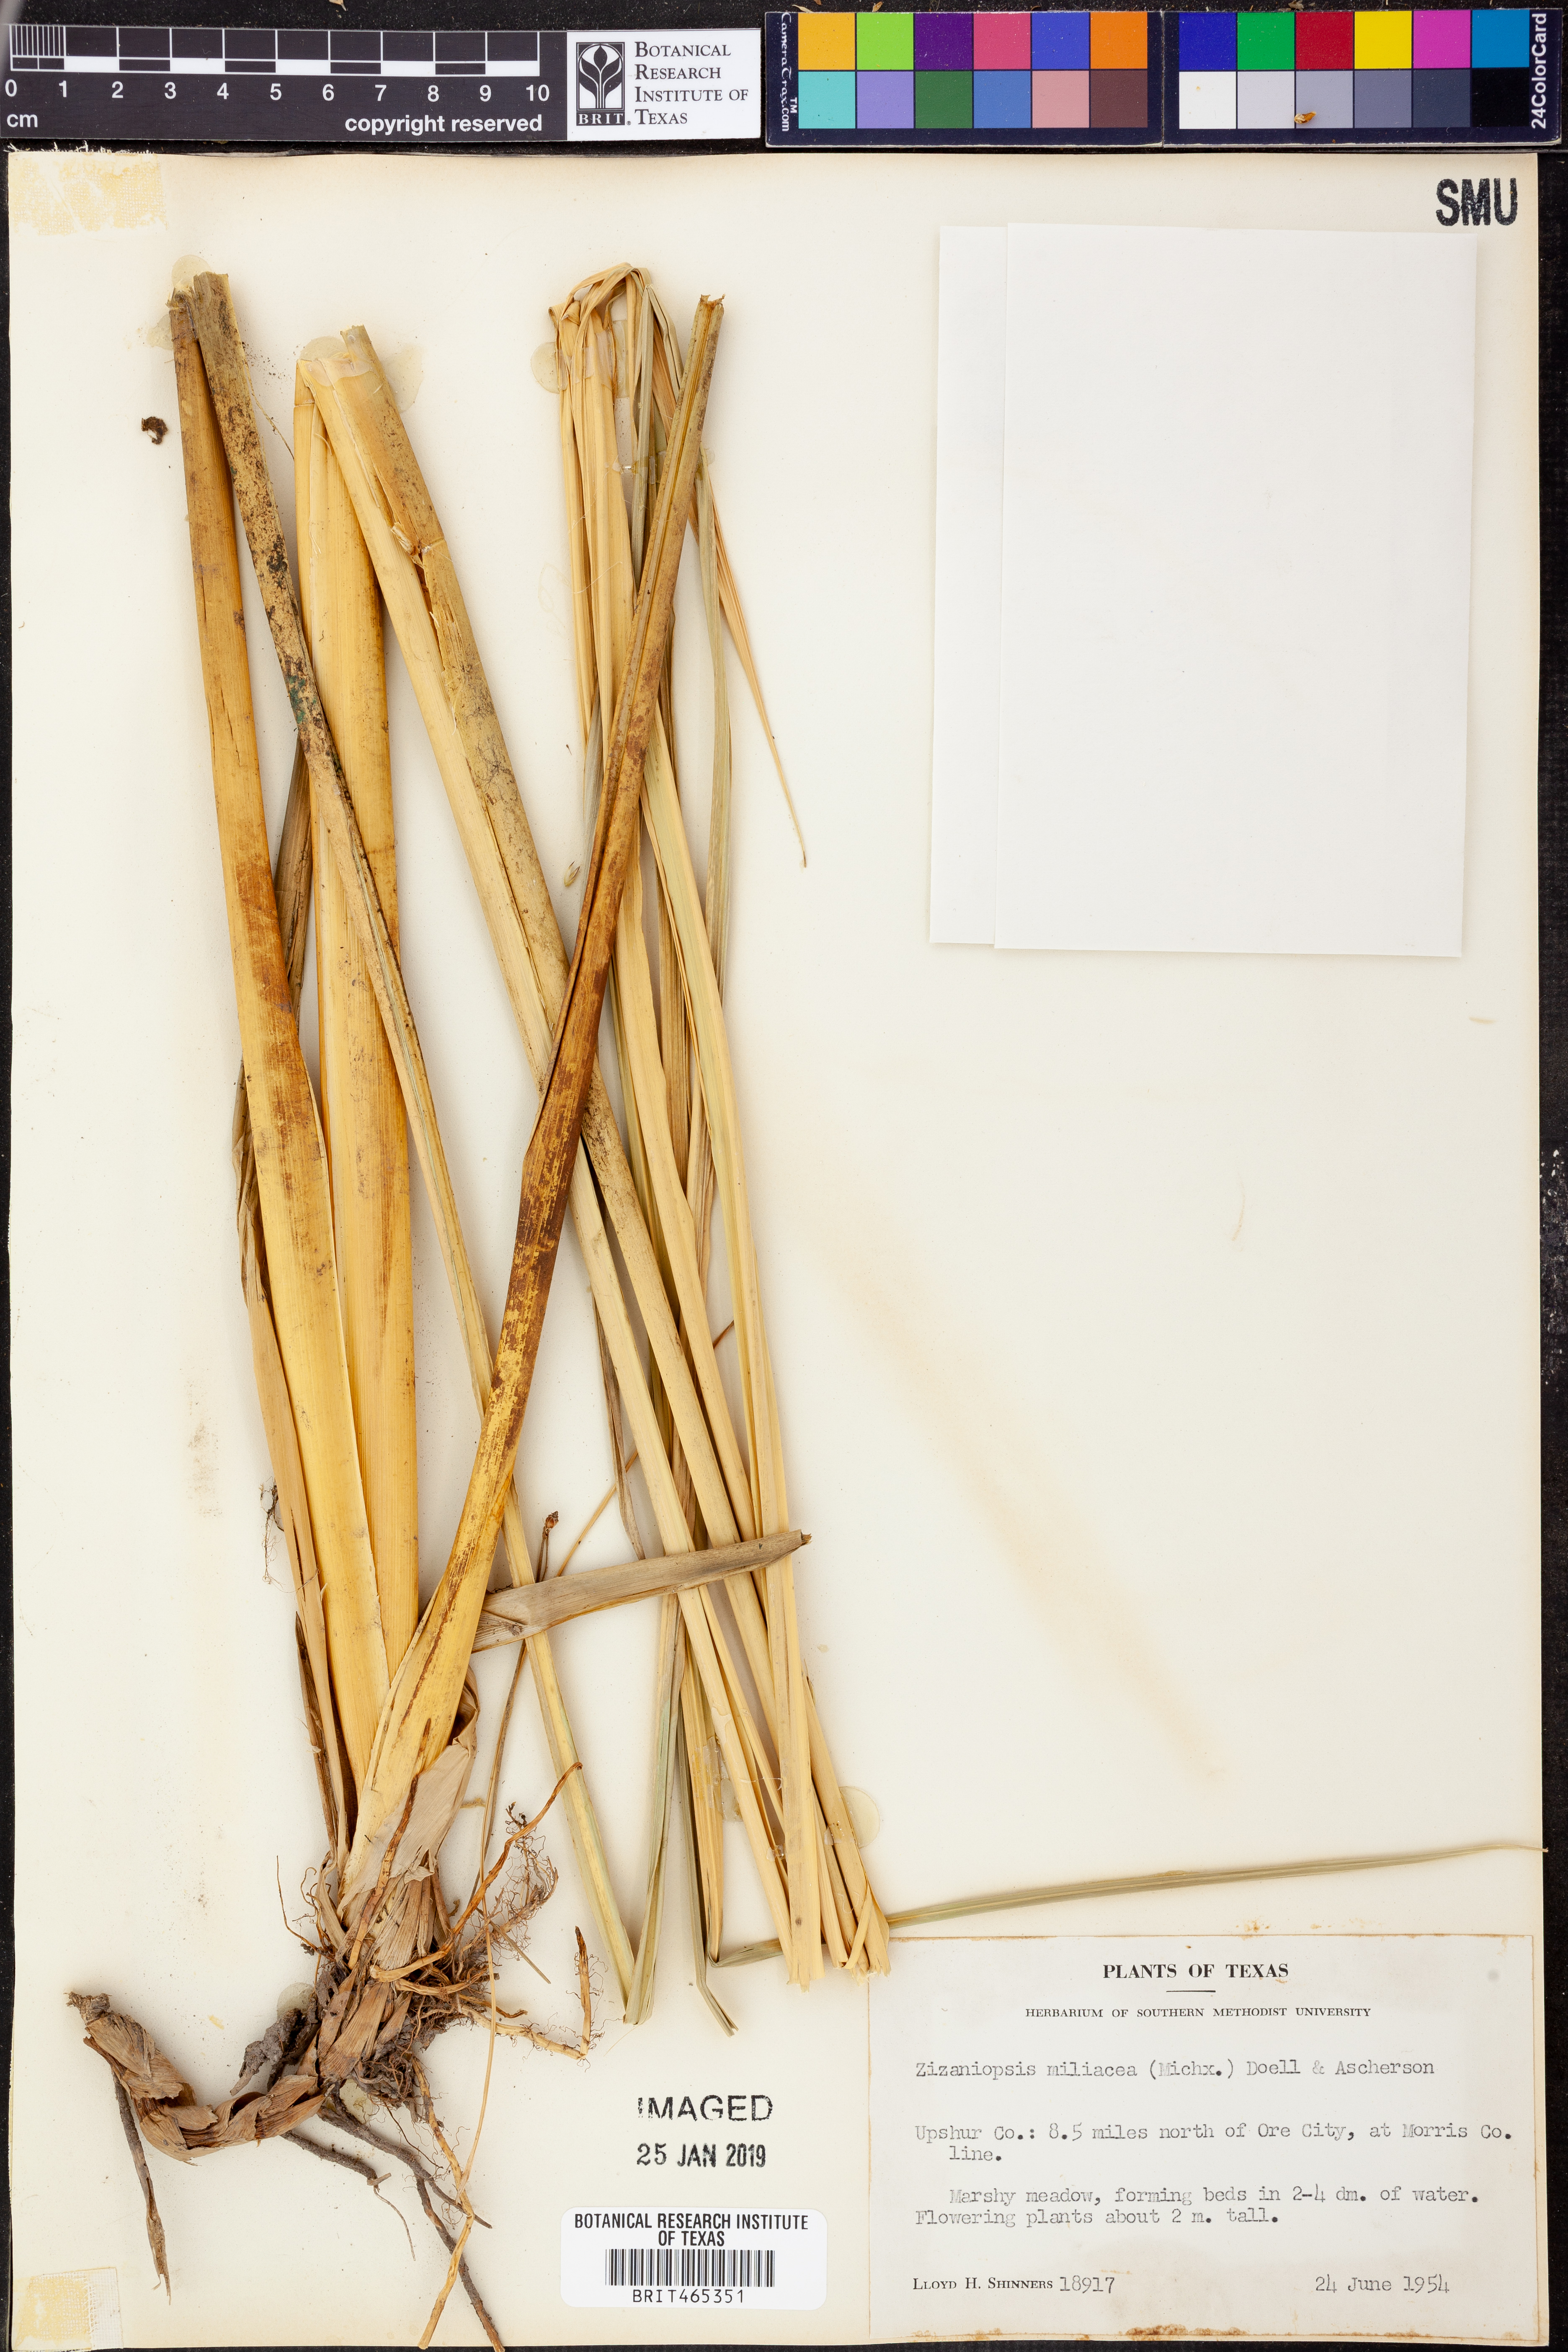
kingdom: Plantae
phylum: Tracheophyta
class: Liliopsida
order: Poales
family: Poaceae
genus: Zizaniopsis
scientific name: Zizaniopsis miliacea
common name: Giant-cutgrass
